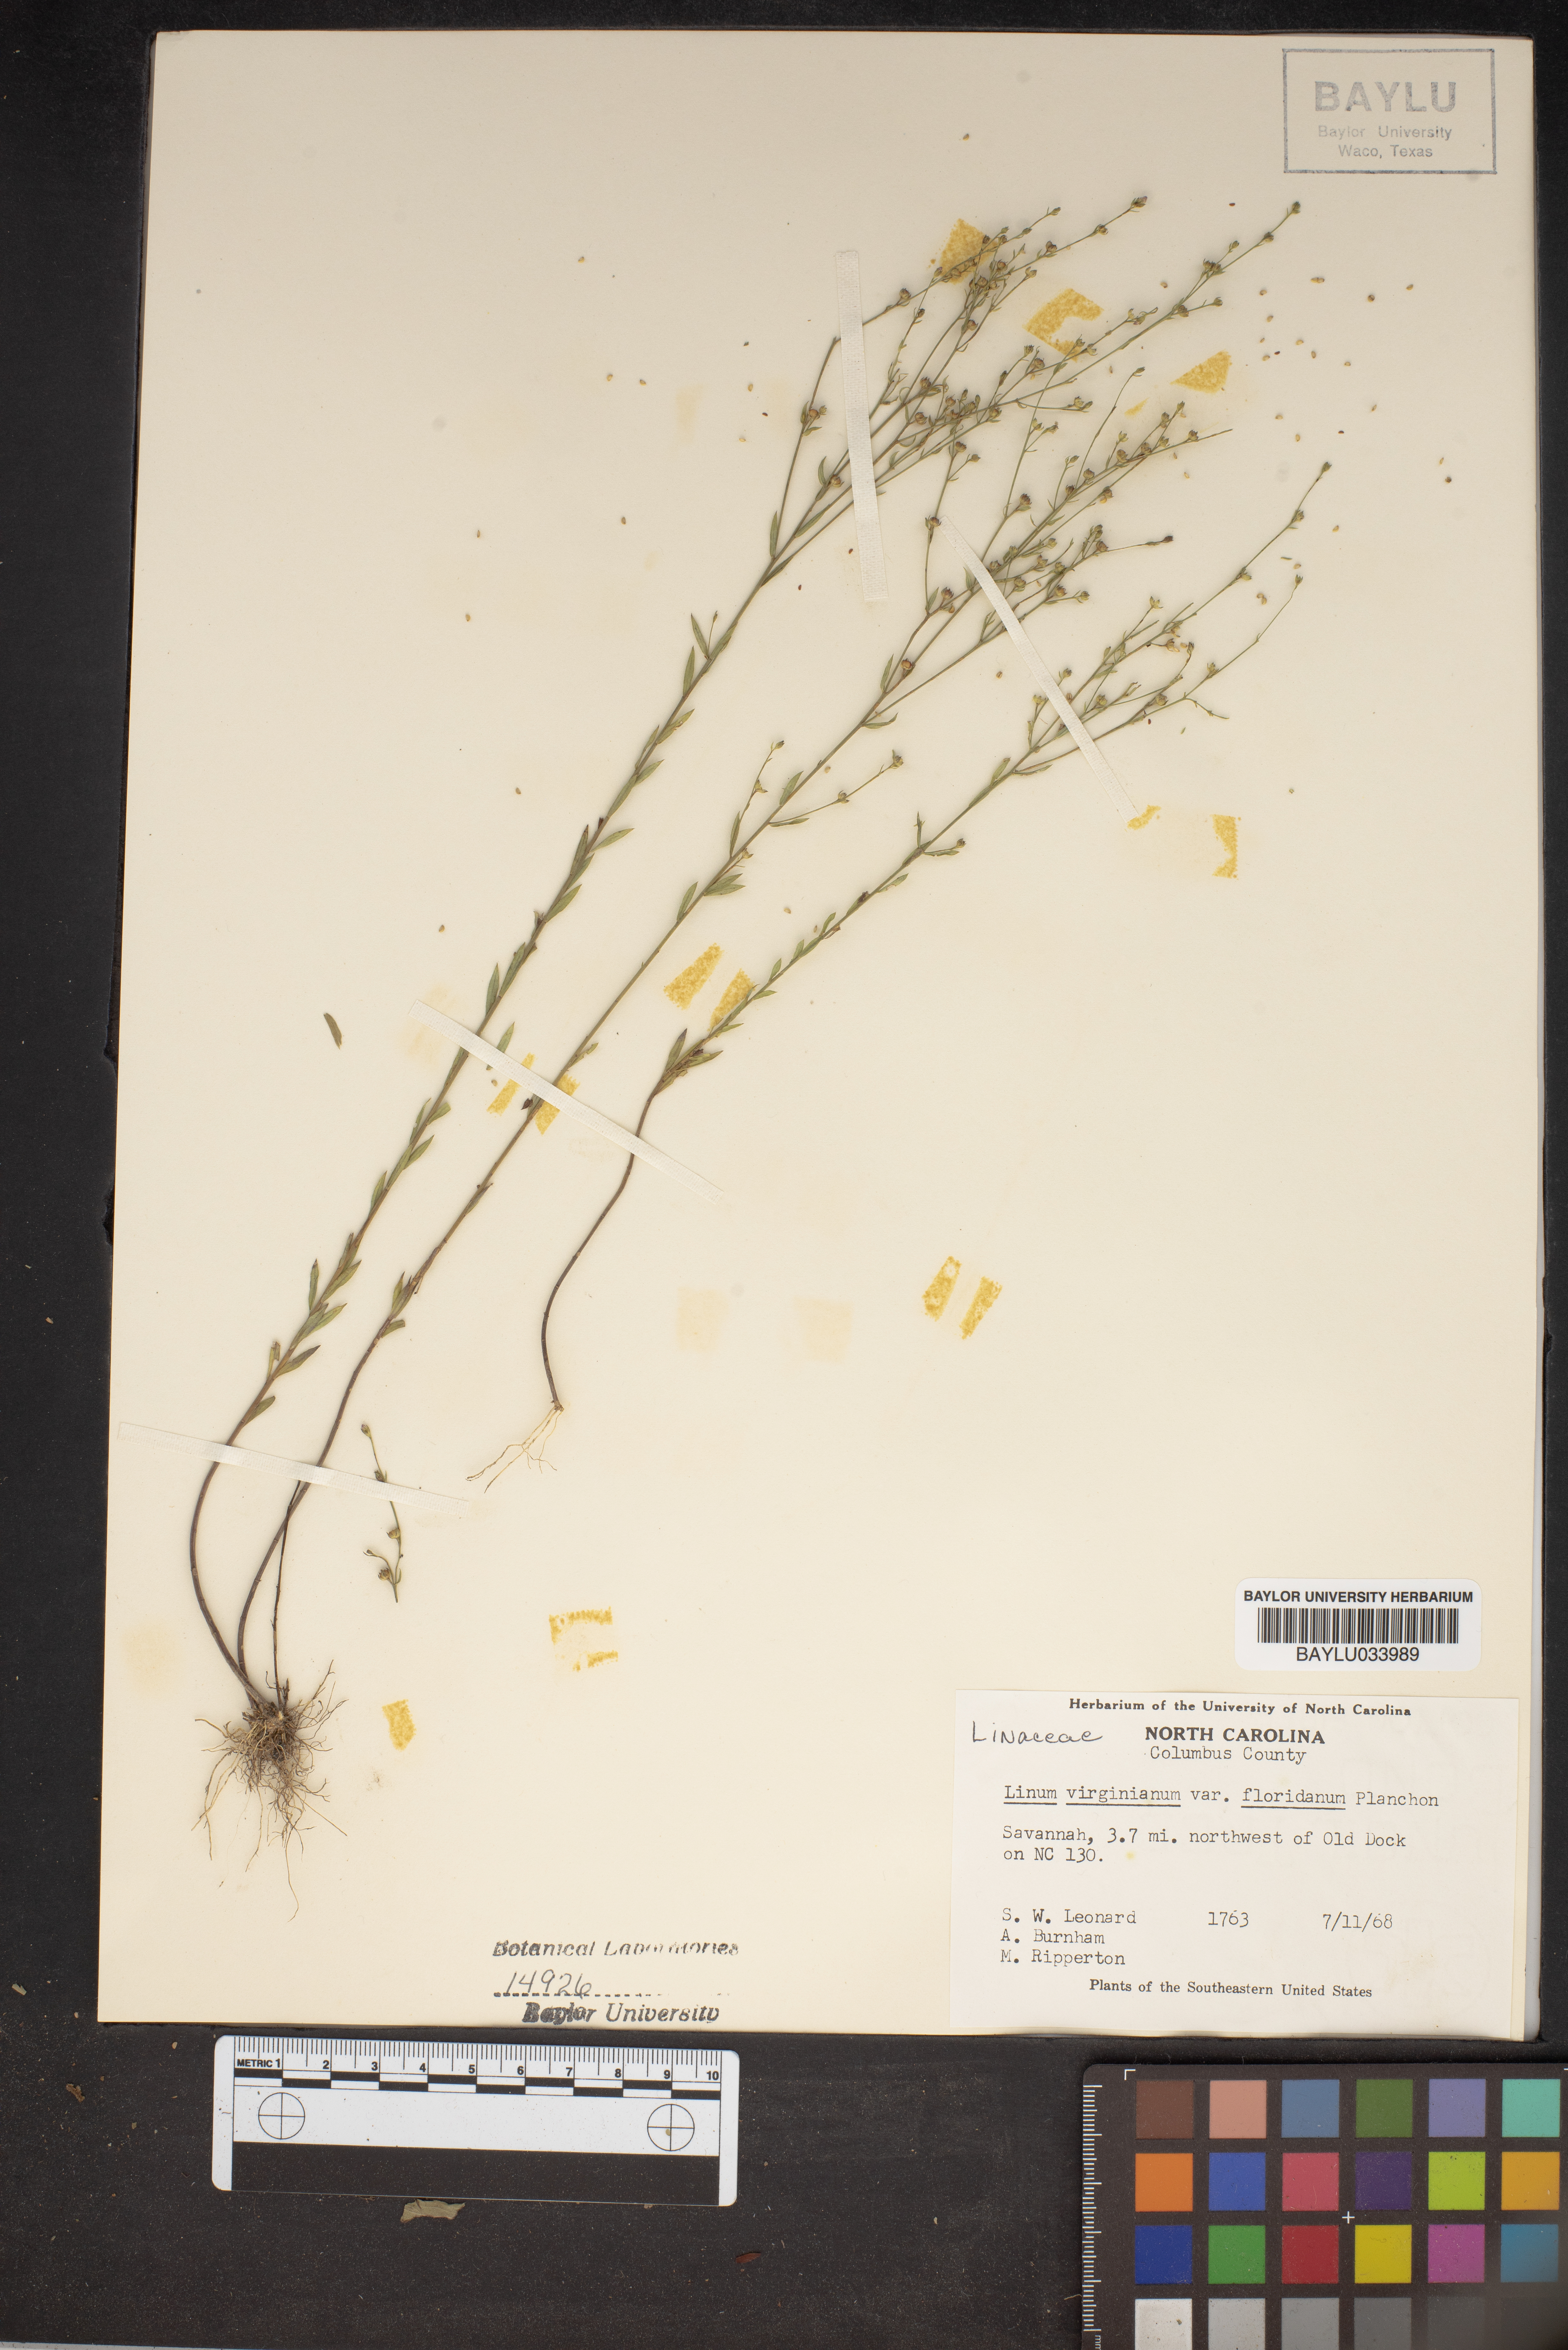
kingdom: Plantae
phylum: Tracheophyta
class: Magnoliopsida
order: Malpighiales
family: Linaceae
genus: Linum
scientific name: Linum floridanum
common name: Florida yellow flax
